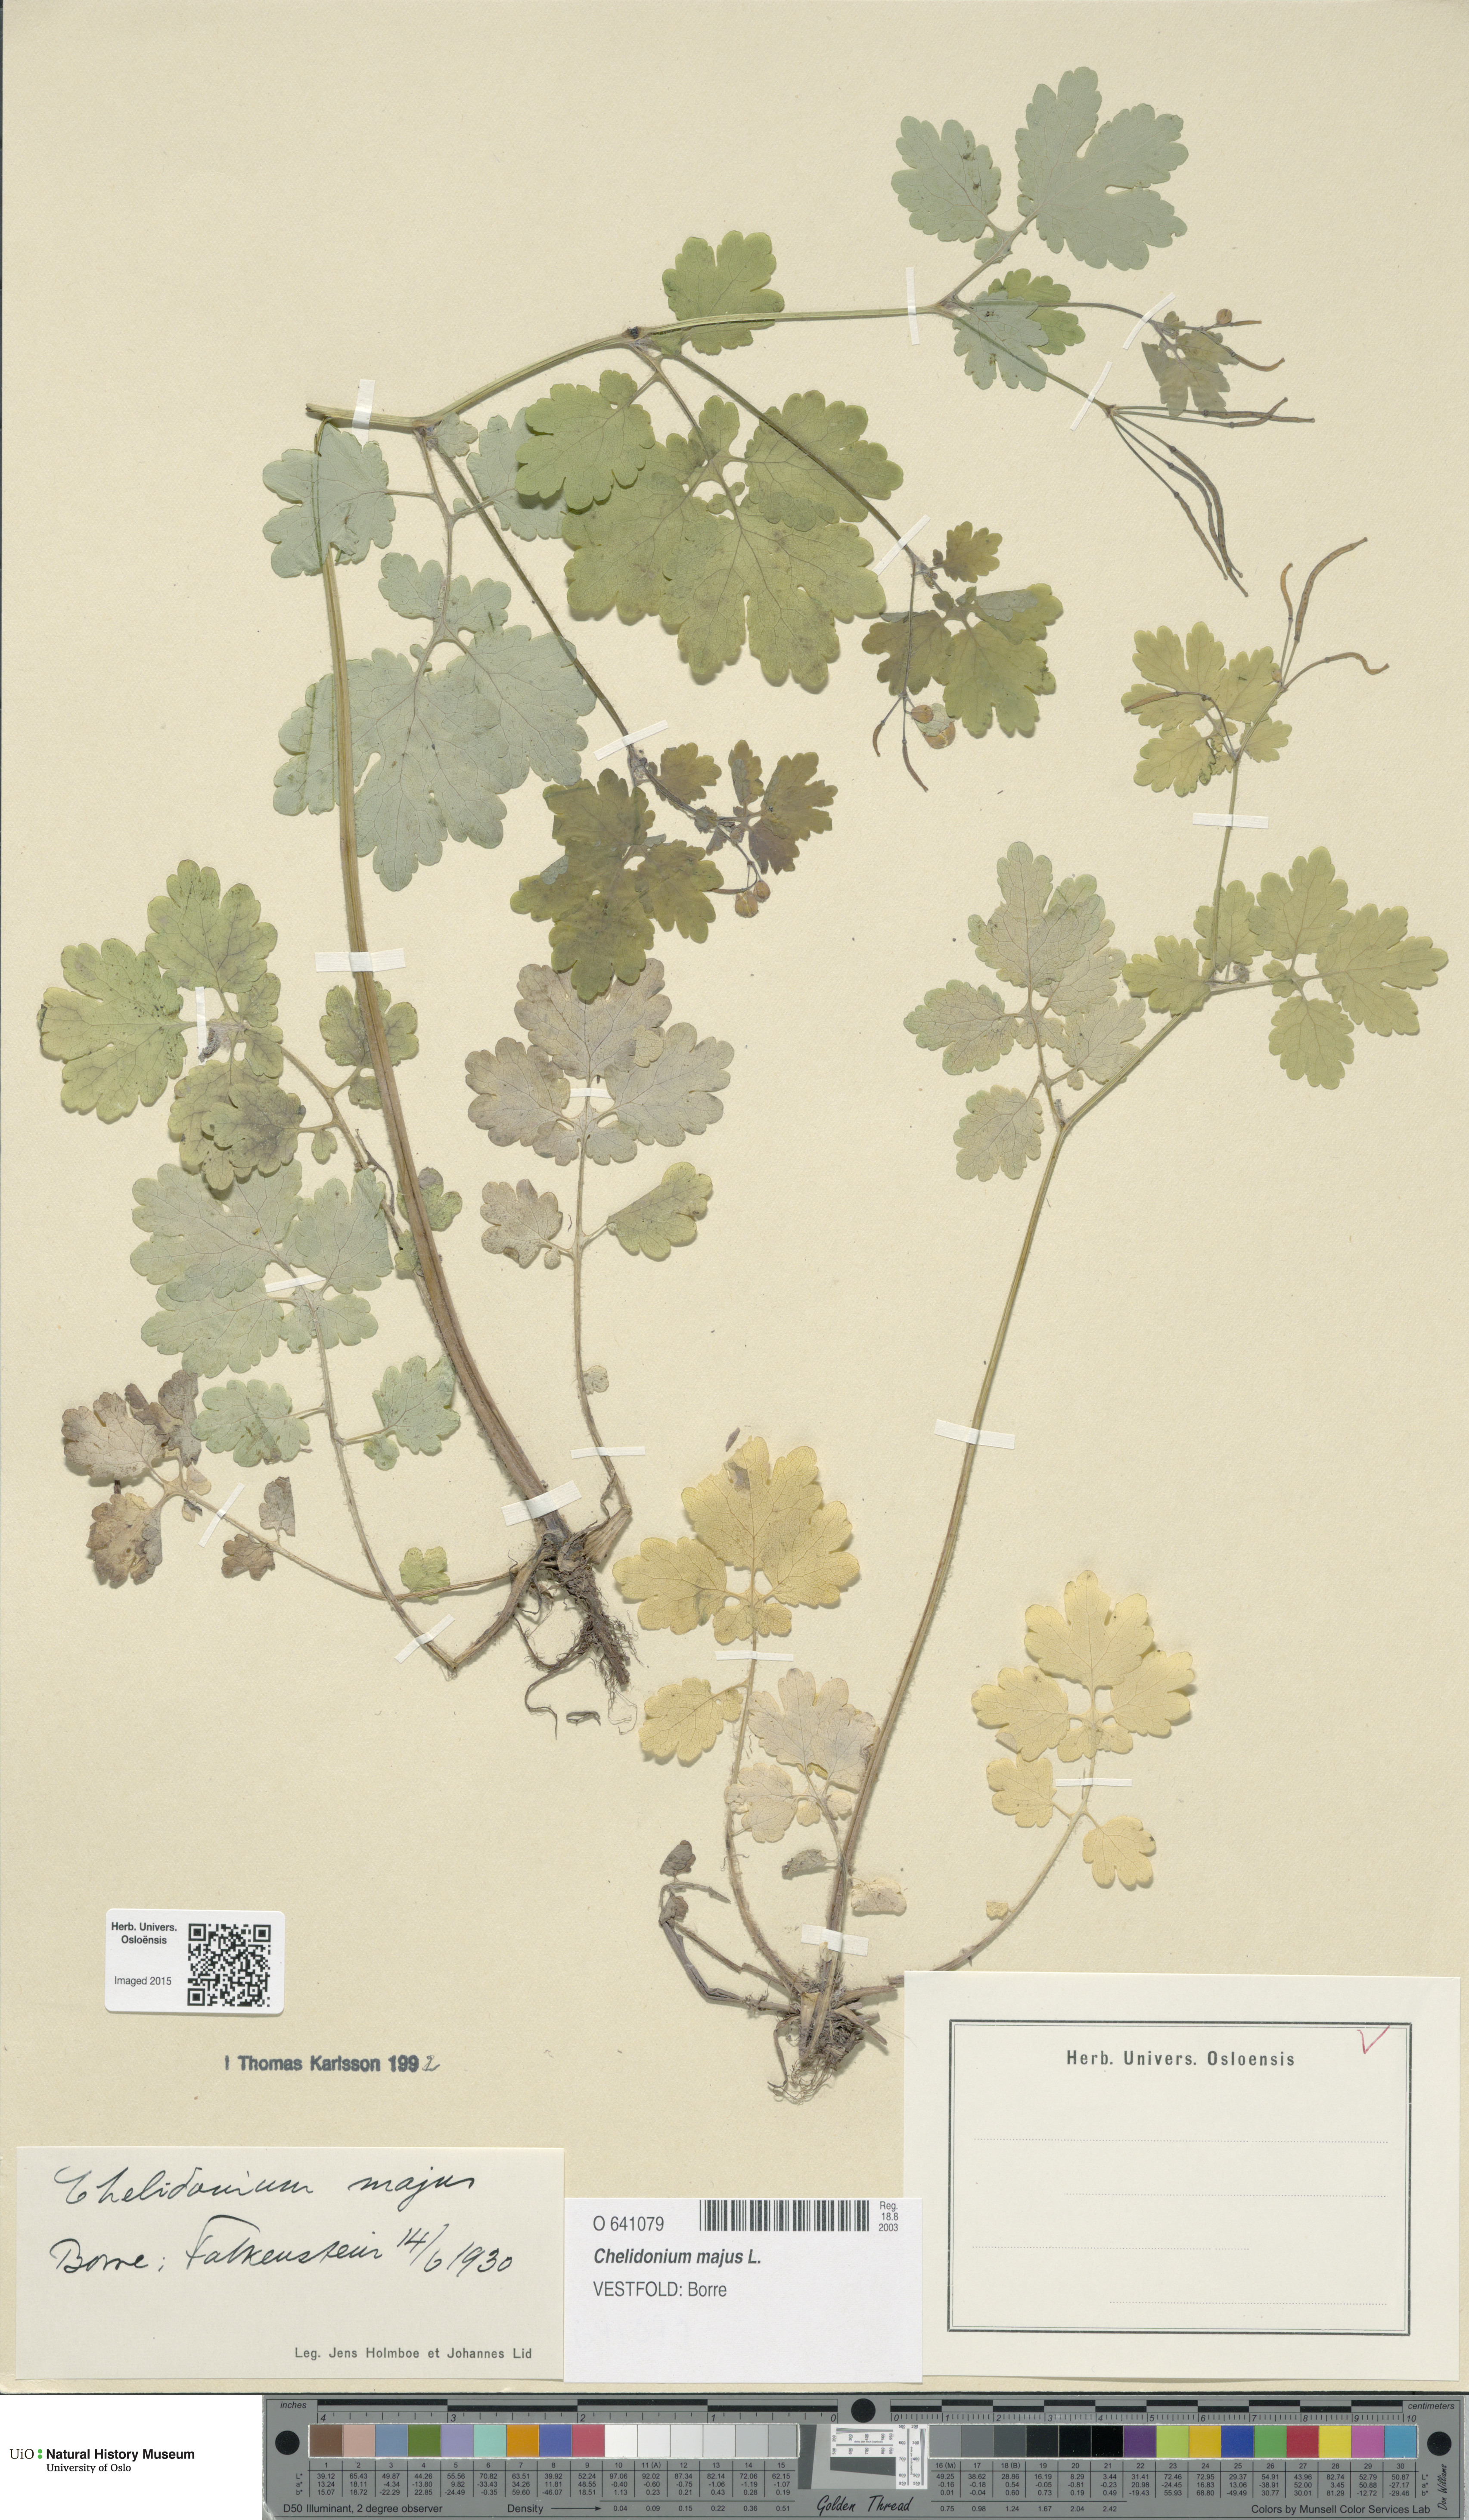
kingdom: Plantae
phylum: Tracheophyta
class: Magnoliopsida
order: Ranunculales
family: Papaveraceae
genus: Chelidonium
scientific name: Chelidonium majus
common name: Greater celandine
